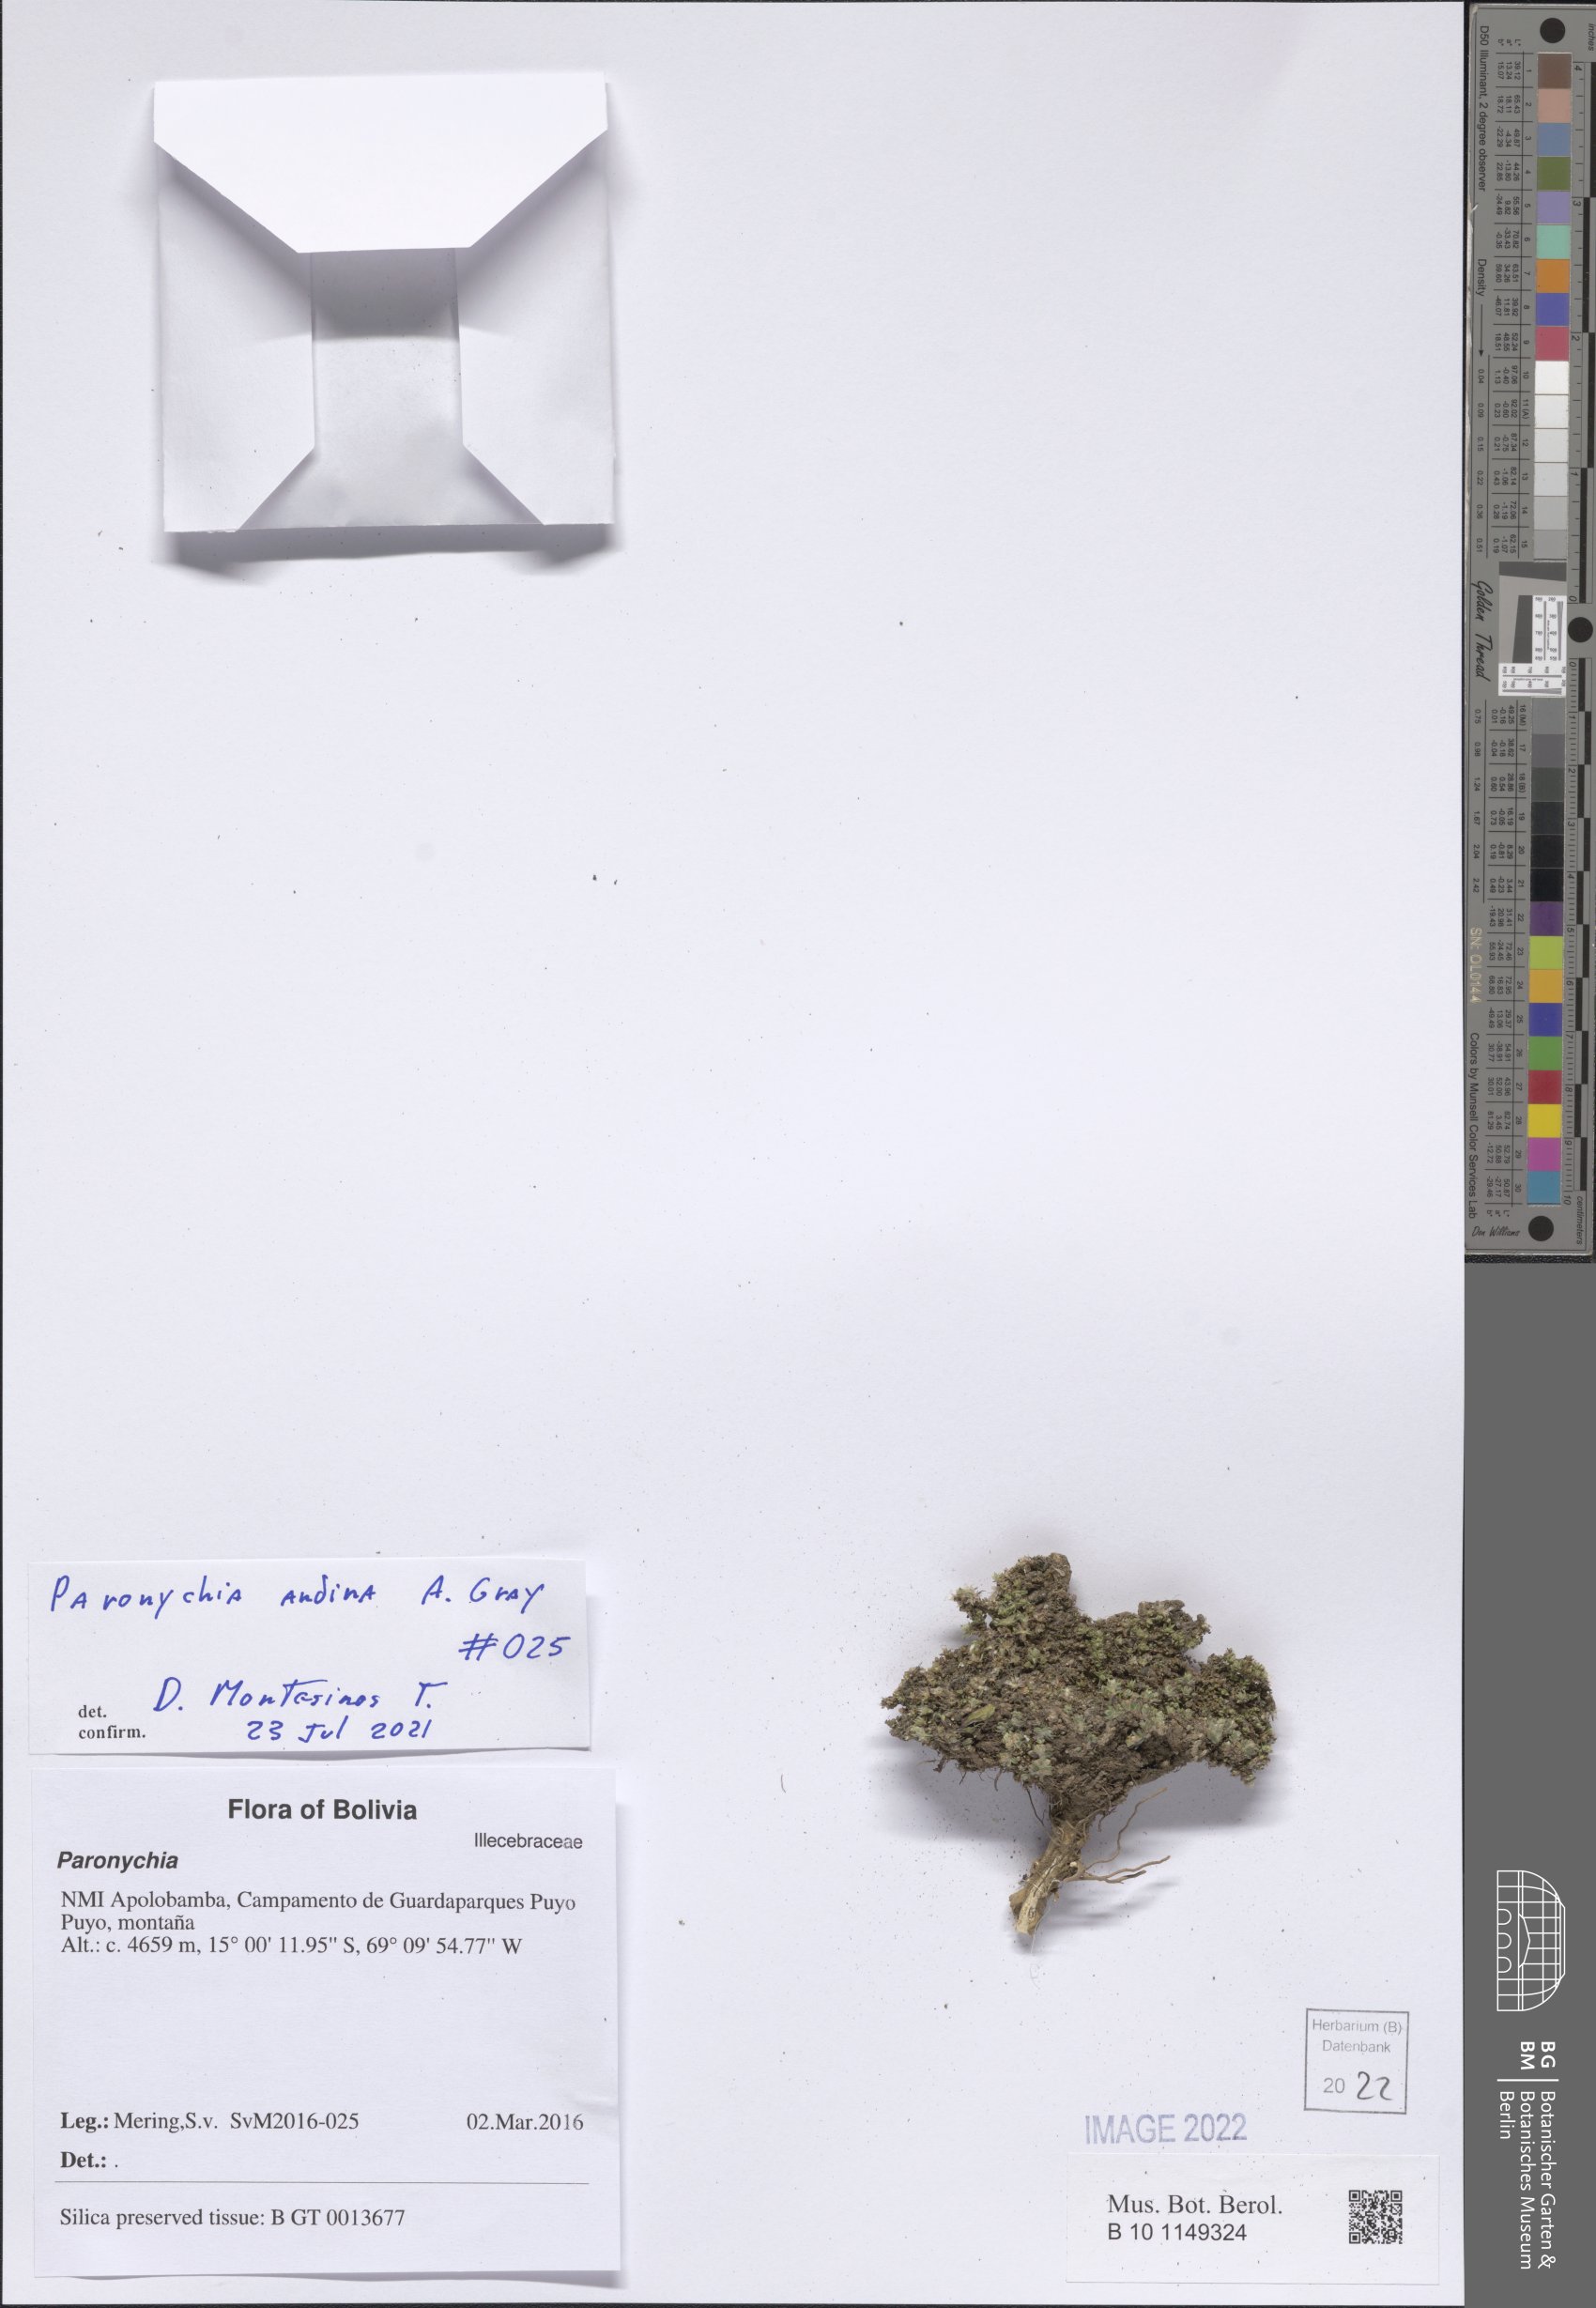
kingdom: Plantae
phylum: Tracheophyta
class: Magnoliopsida
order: Caryophyllales
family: Caryophyllaceae
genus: Paronychia
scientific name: Paronychia
